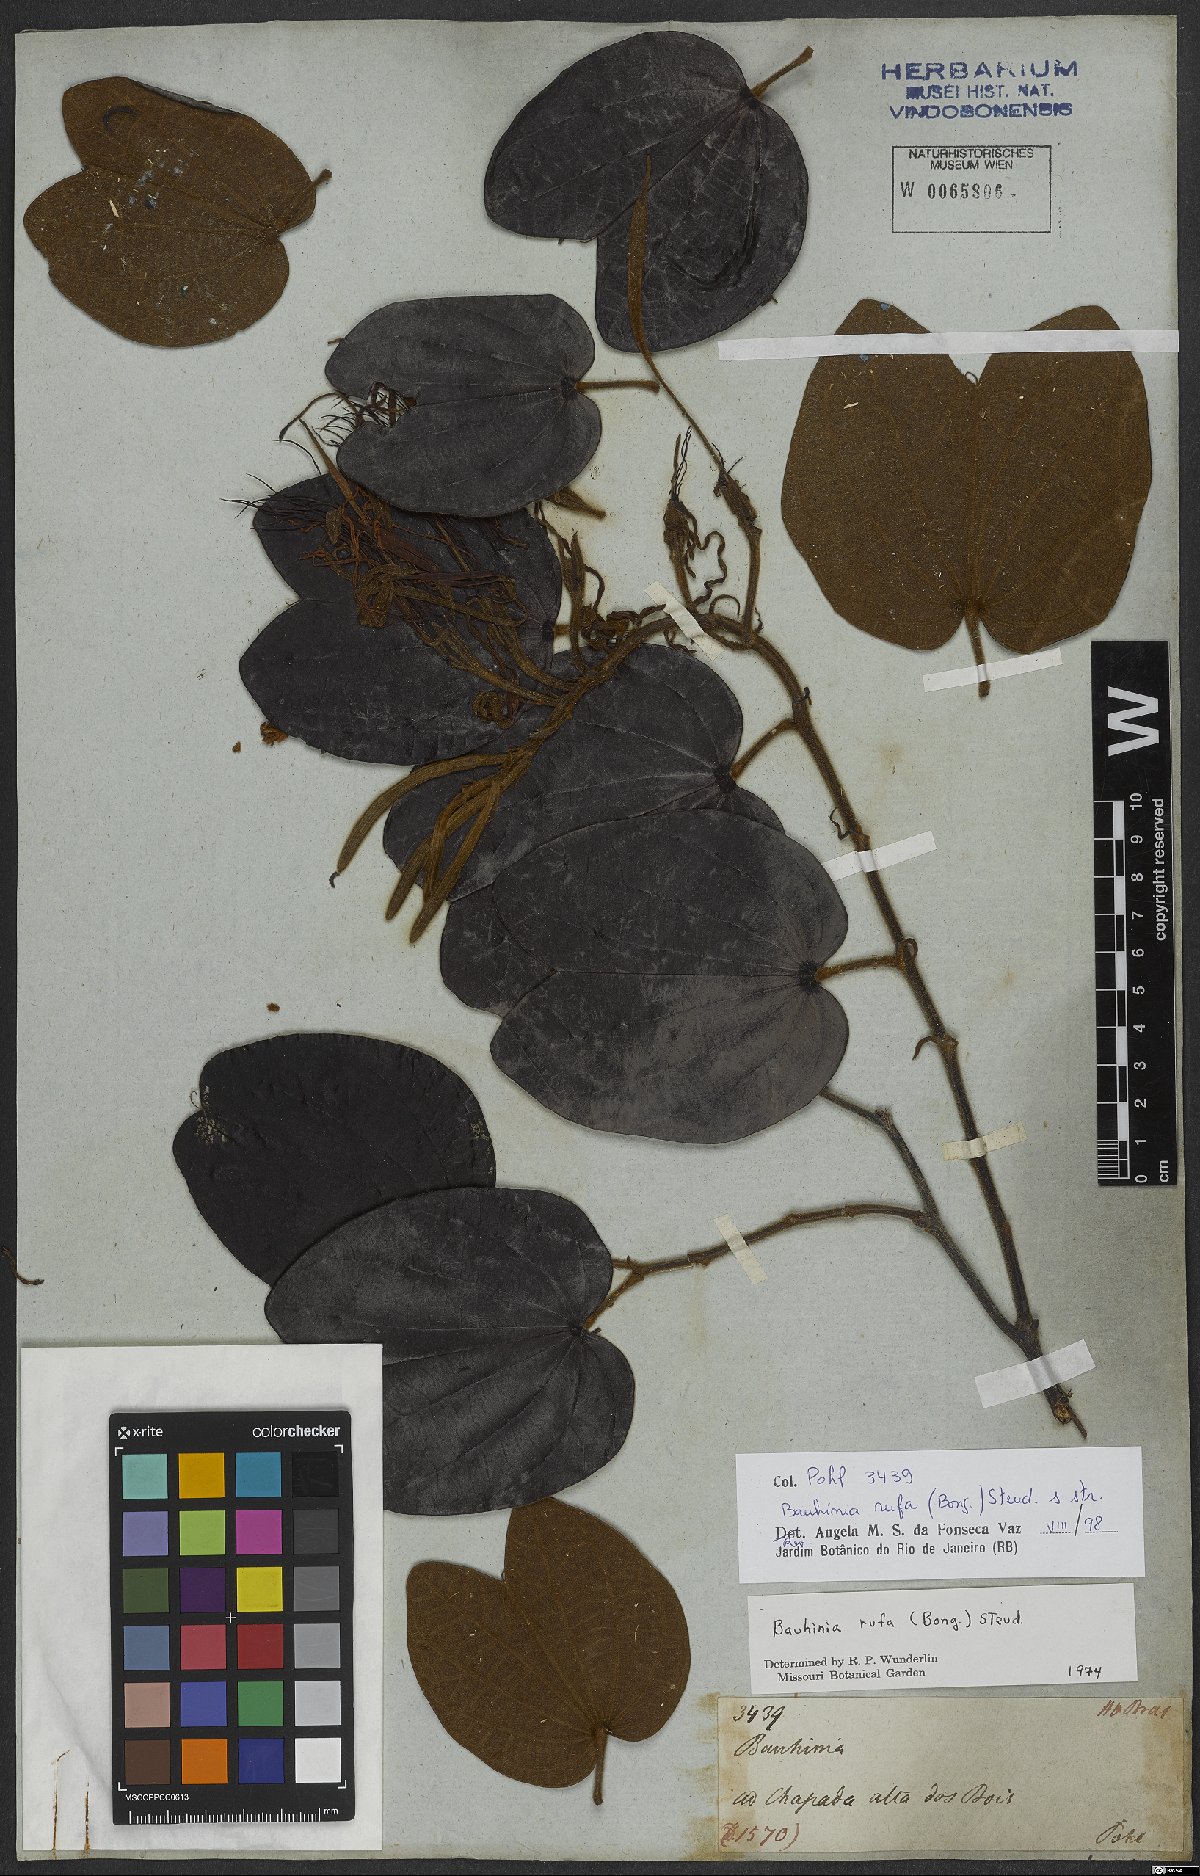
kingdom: Plantae
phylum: Tracheophyta
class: Magnoliopsida
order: Fabales
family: Fabaceae
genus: Bauhinia
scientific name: Bauhinia rufa
